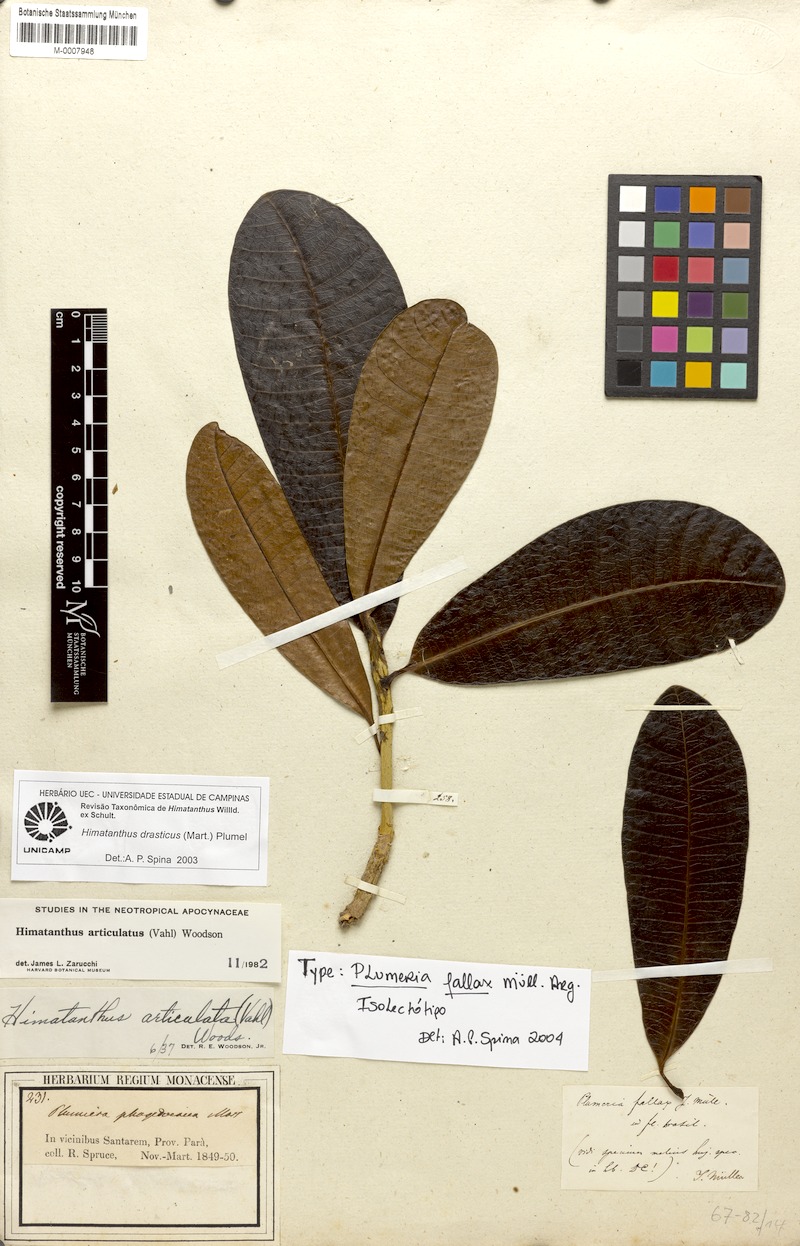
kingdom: Plantae
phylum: Tracheophyta
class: Magnoliopsida
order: Gentianales
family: Apocynaceae
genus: Himatanthus
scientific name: Himatanthus drasticus
